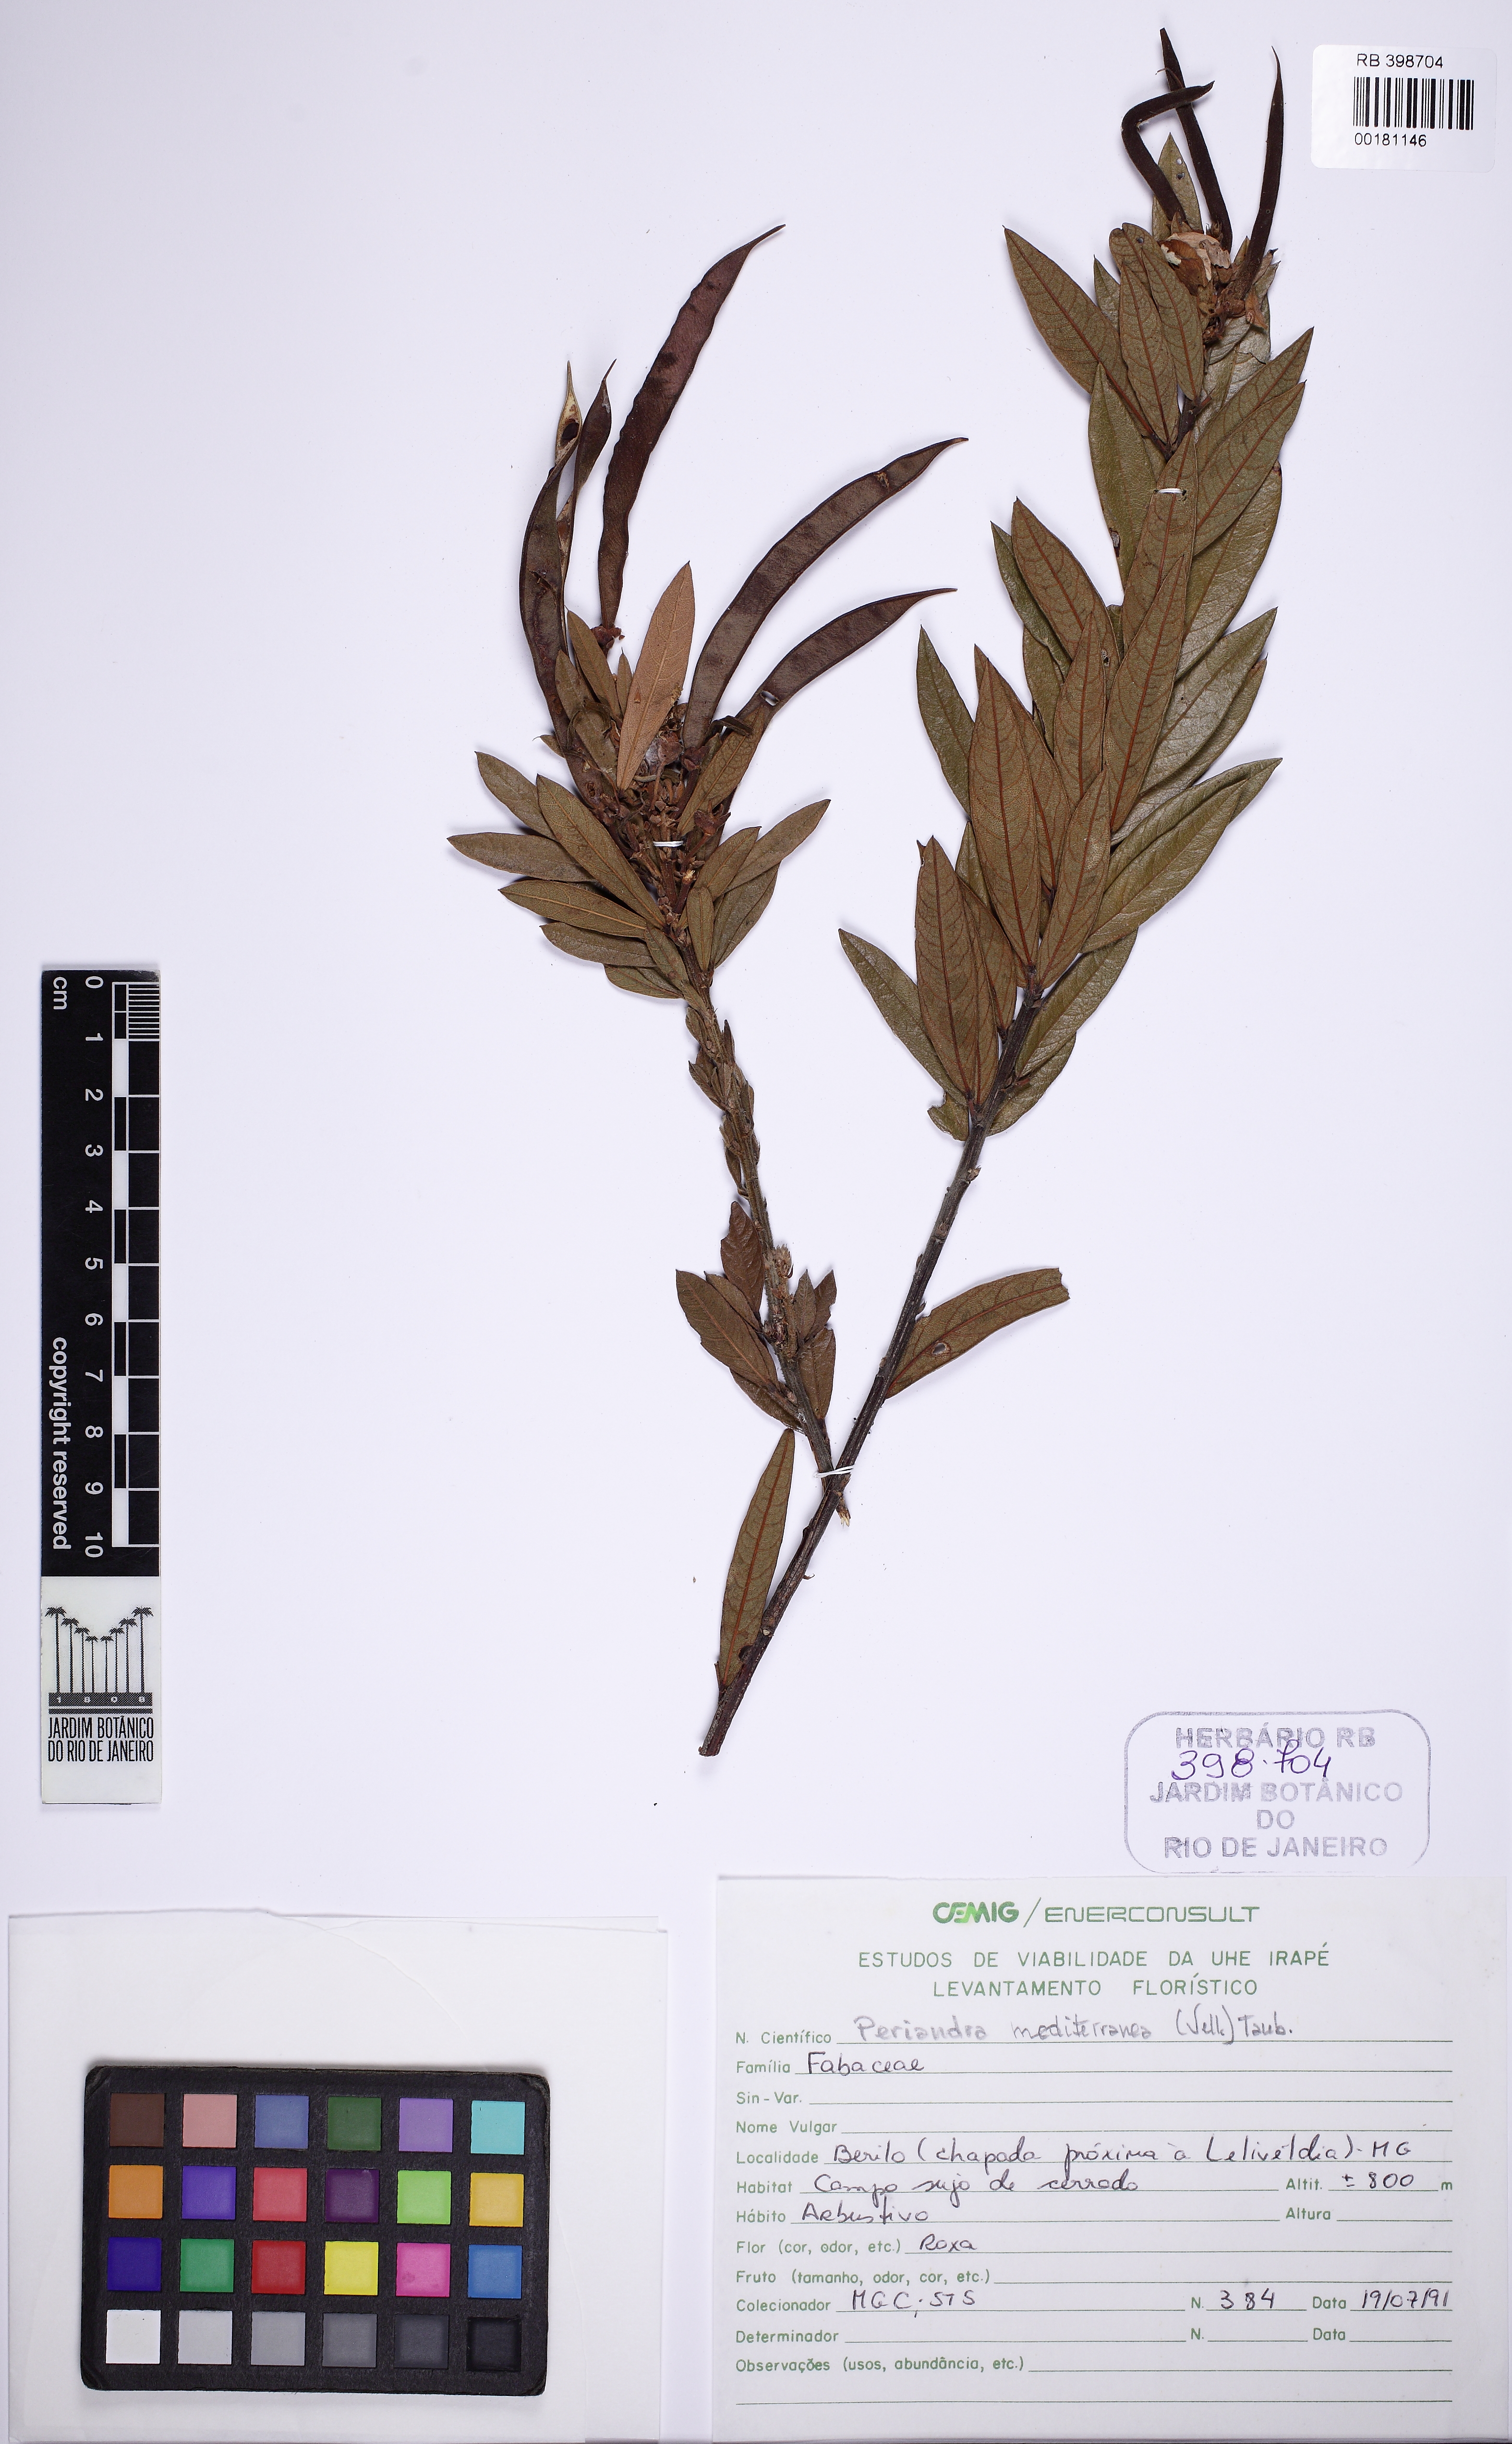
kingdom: Plantae
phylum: Tracheophyta
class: Magnoliopsida
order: Fabales
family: Fabaceae
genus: Periandra
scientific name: Periandra mediterranea
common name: Brazilian licorice
